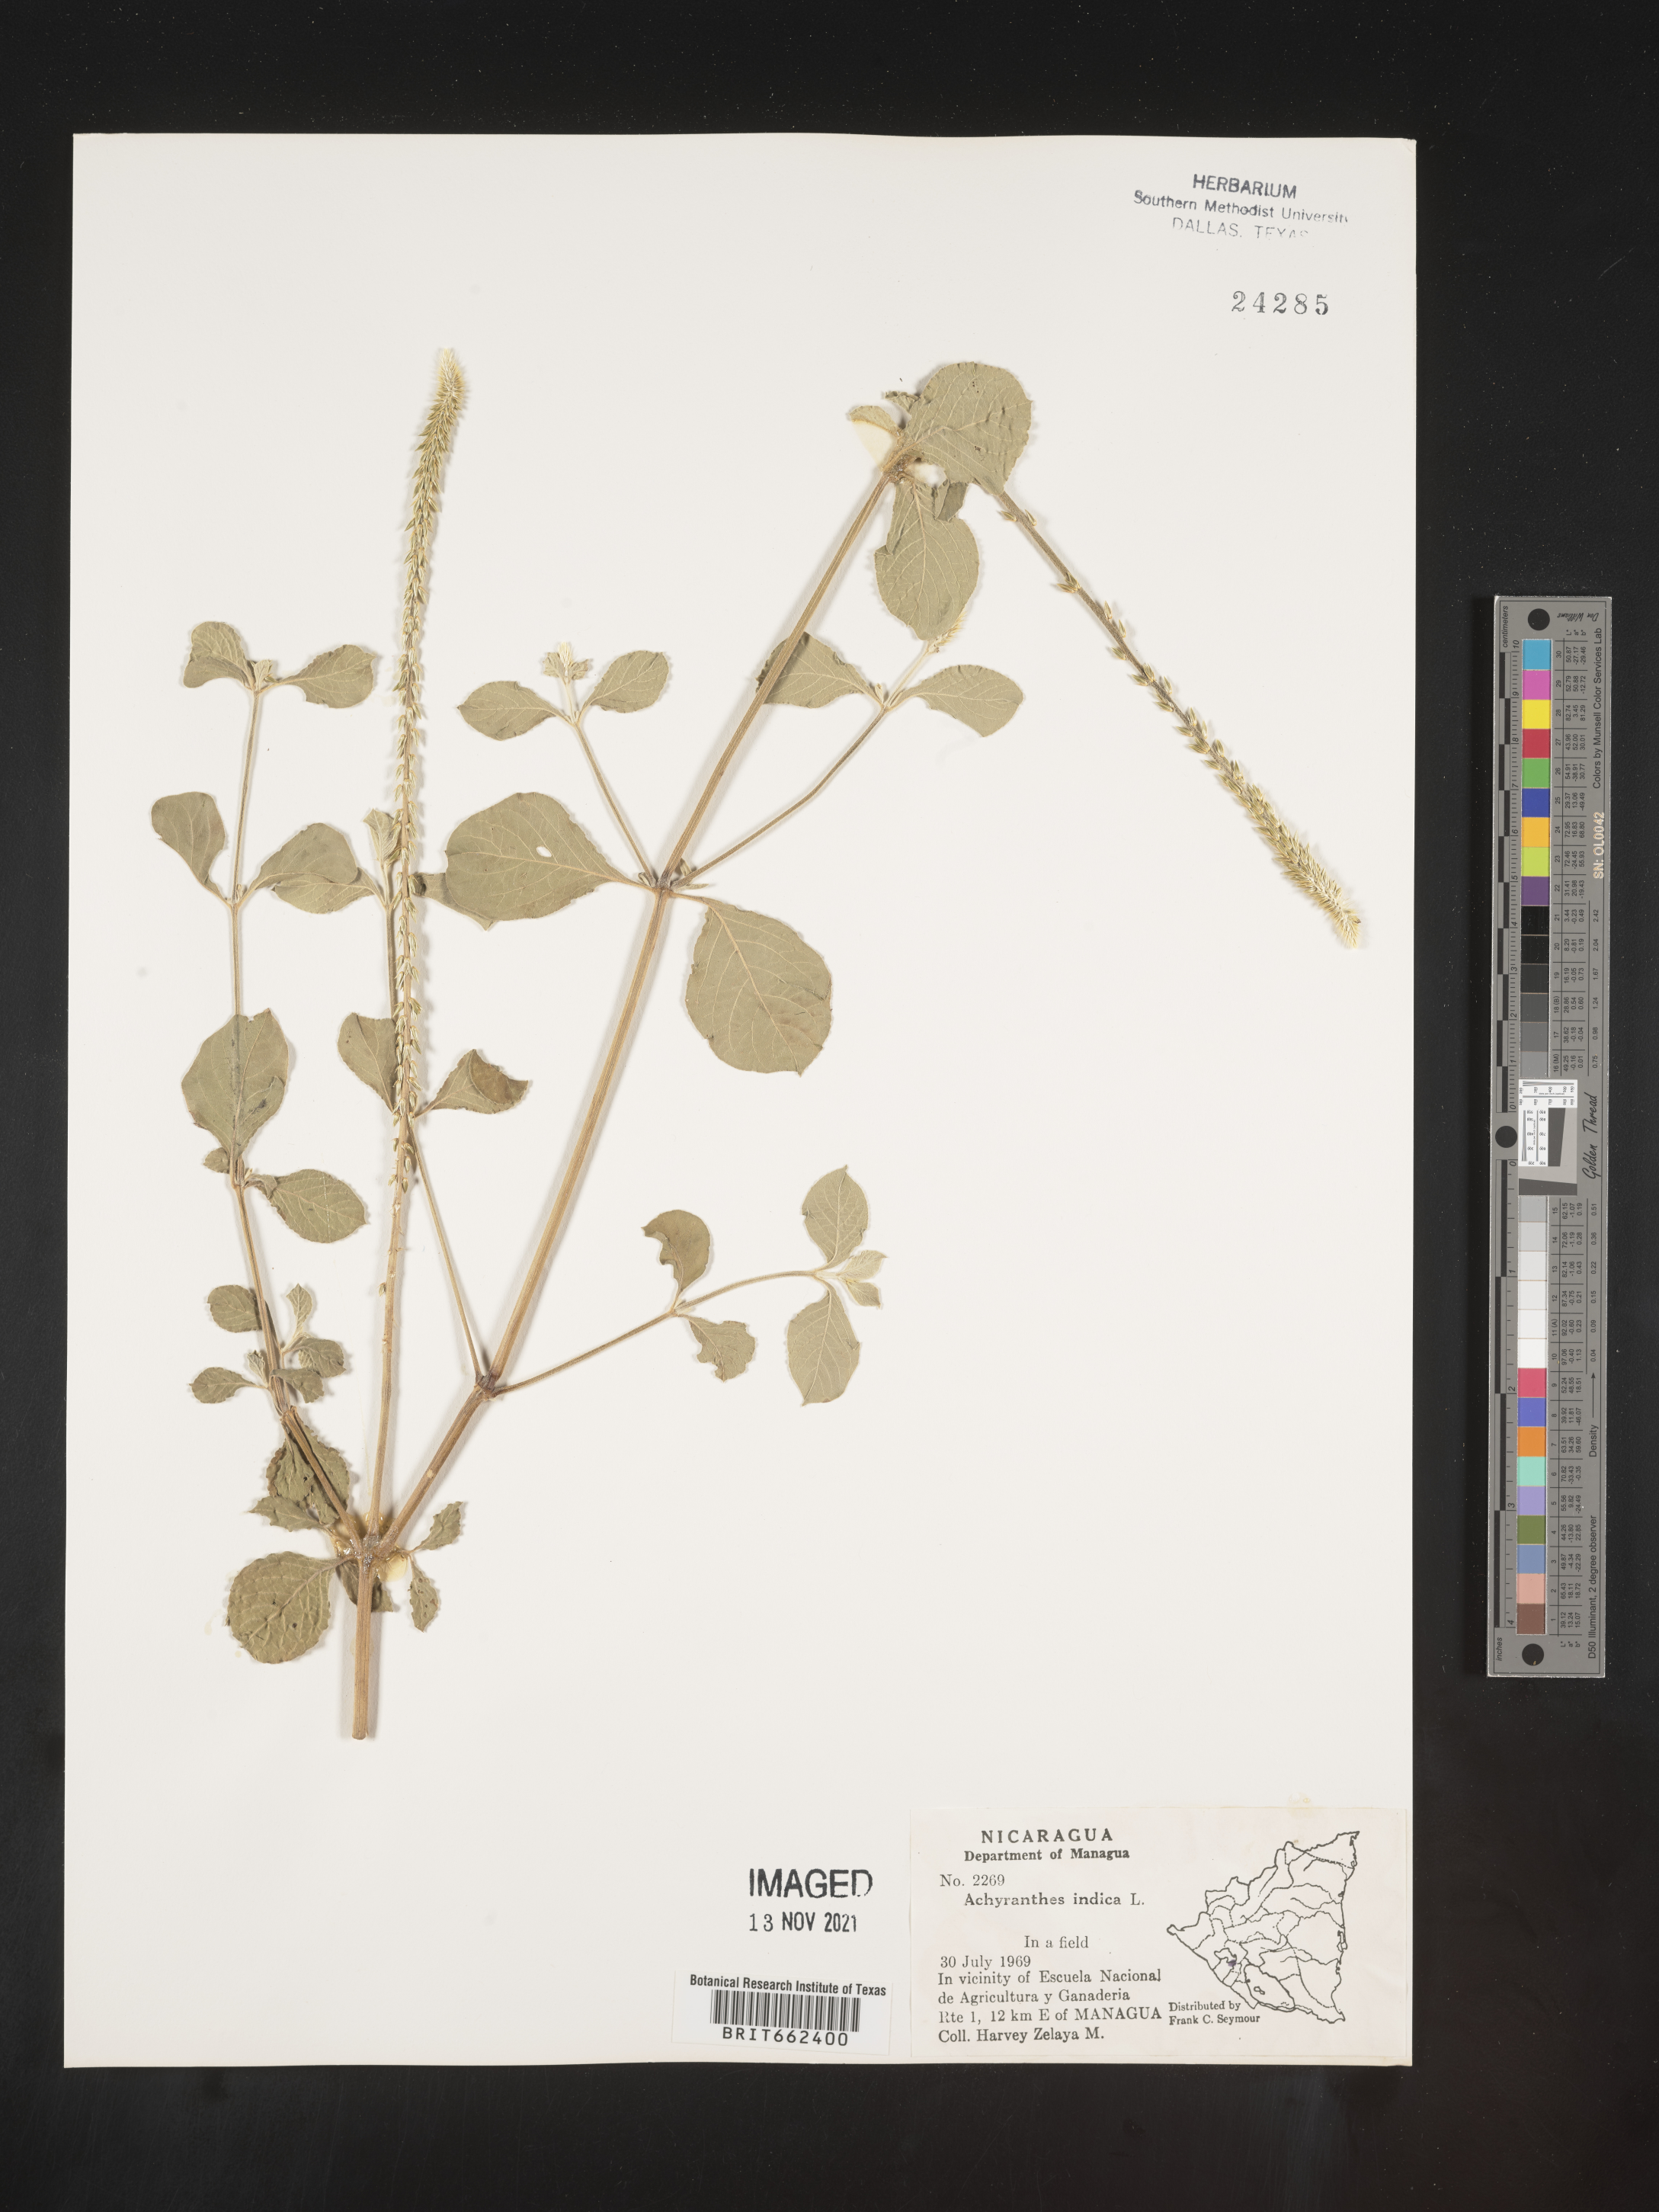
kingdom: Plantae
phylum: Tracheophyta
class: Magnoliopsida
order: Caryophyllales
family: Amaranthaceae
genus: Achyranthes
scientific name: Achyranthes
